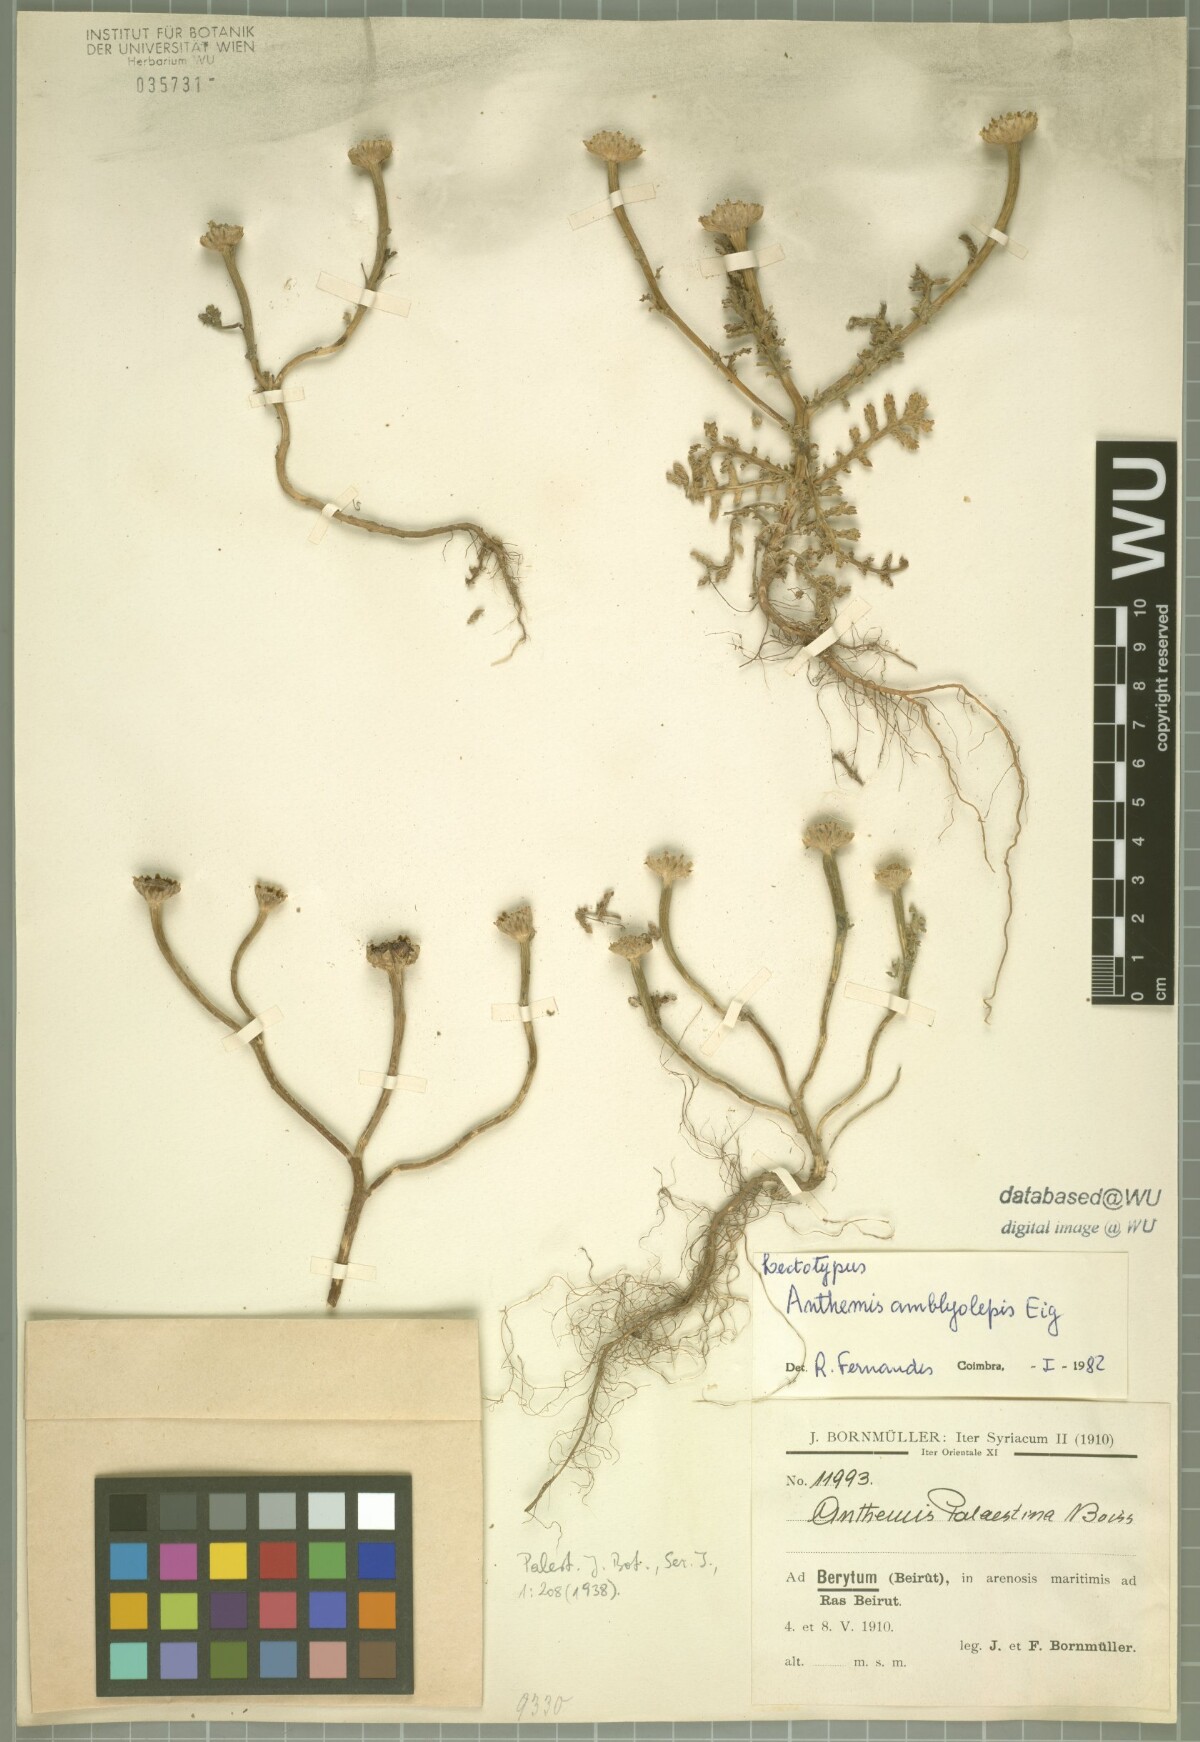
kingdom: Plantae
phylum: Tracheophyta
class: Magnoliopsida
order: Asterales
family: Asteraceae
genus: Cota
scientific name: Cota amblyolepis
